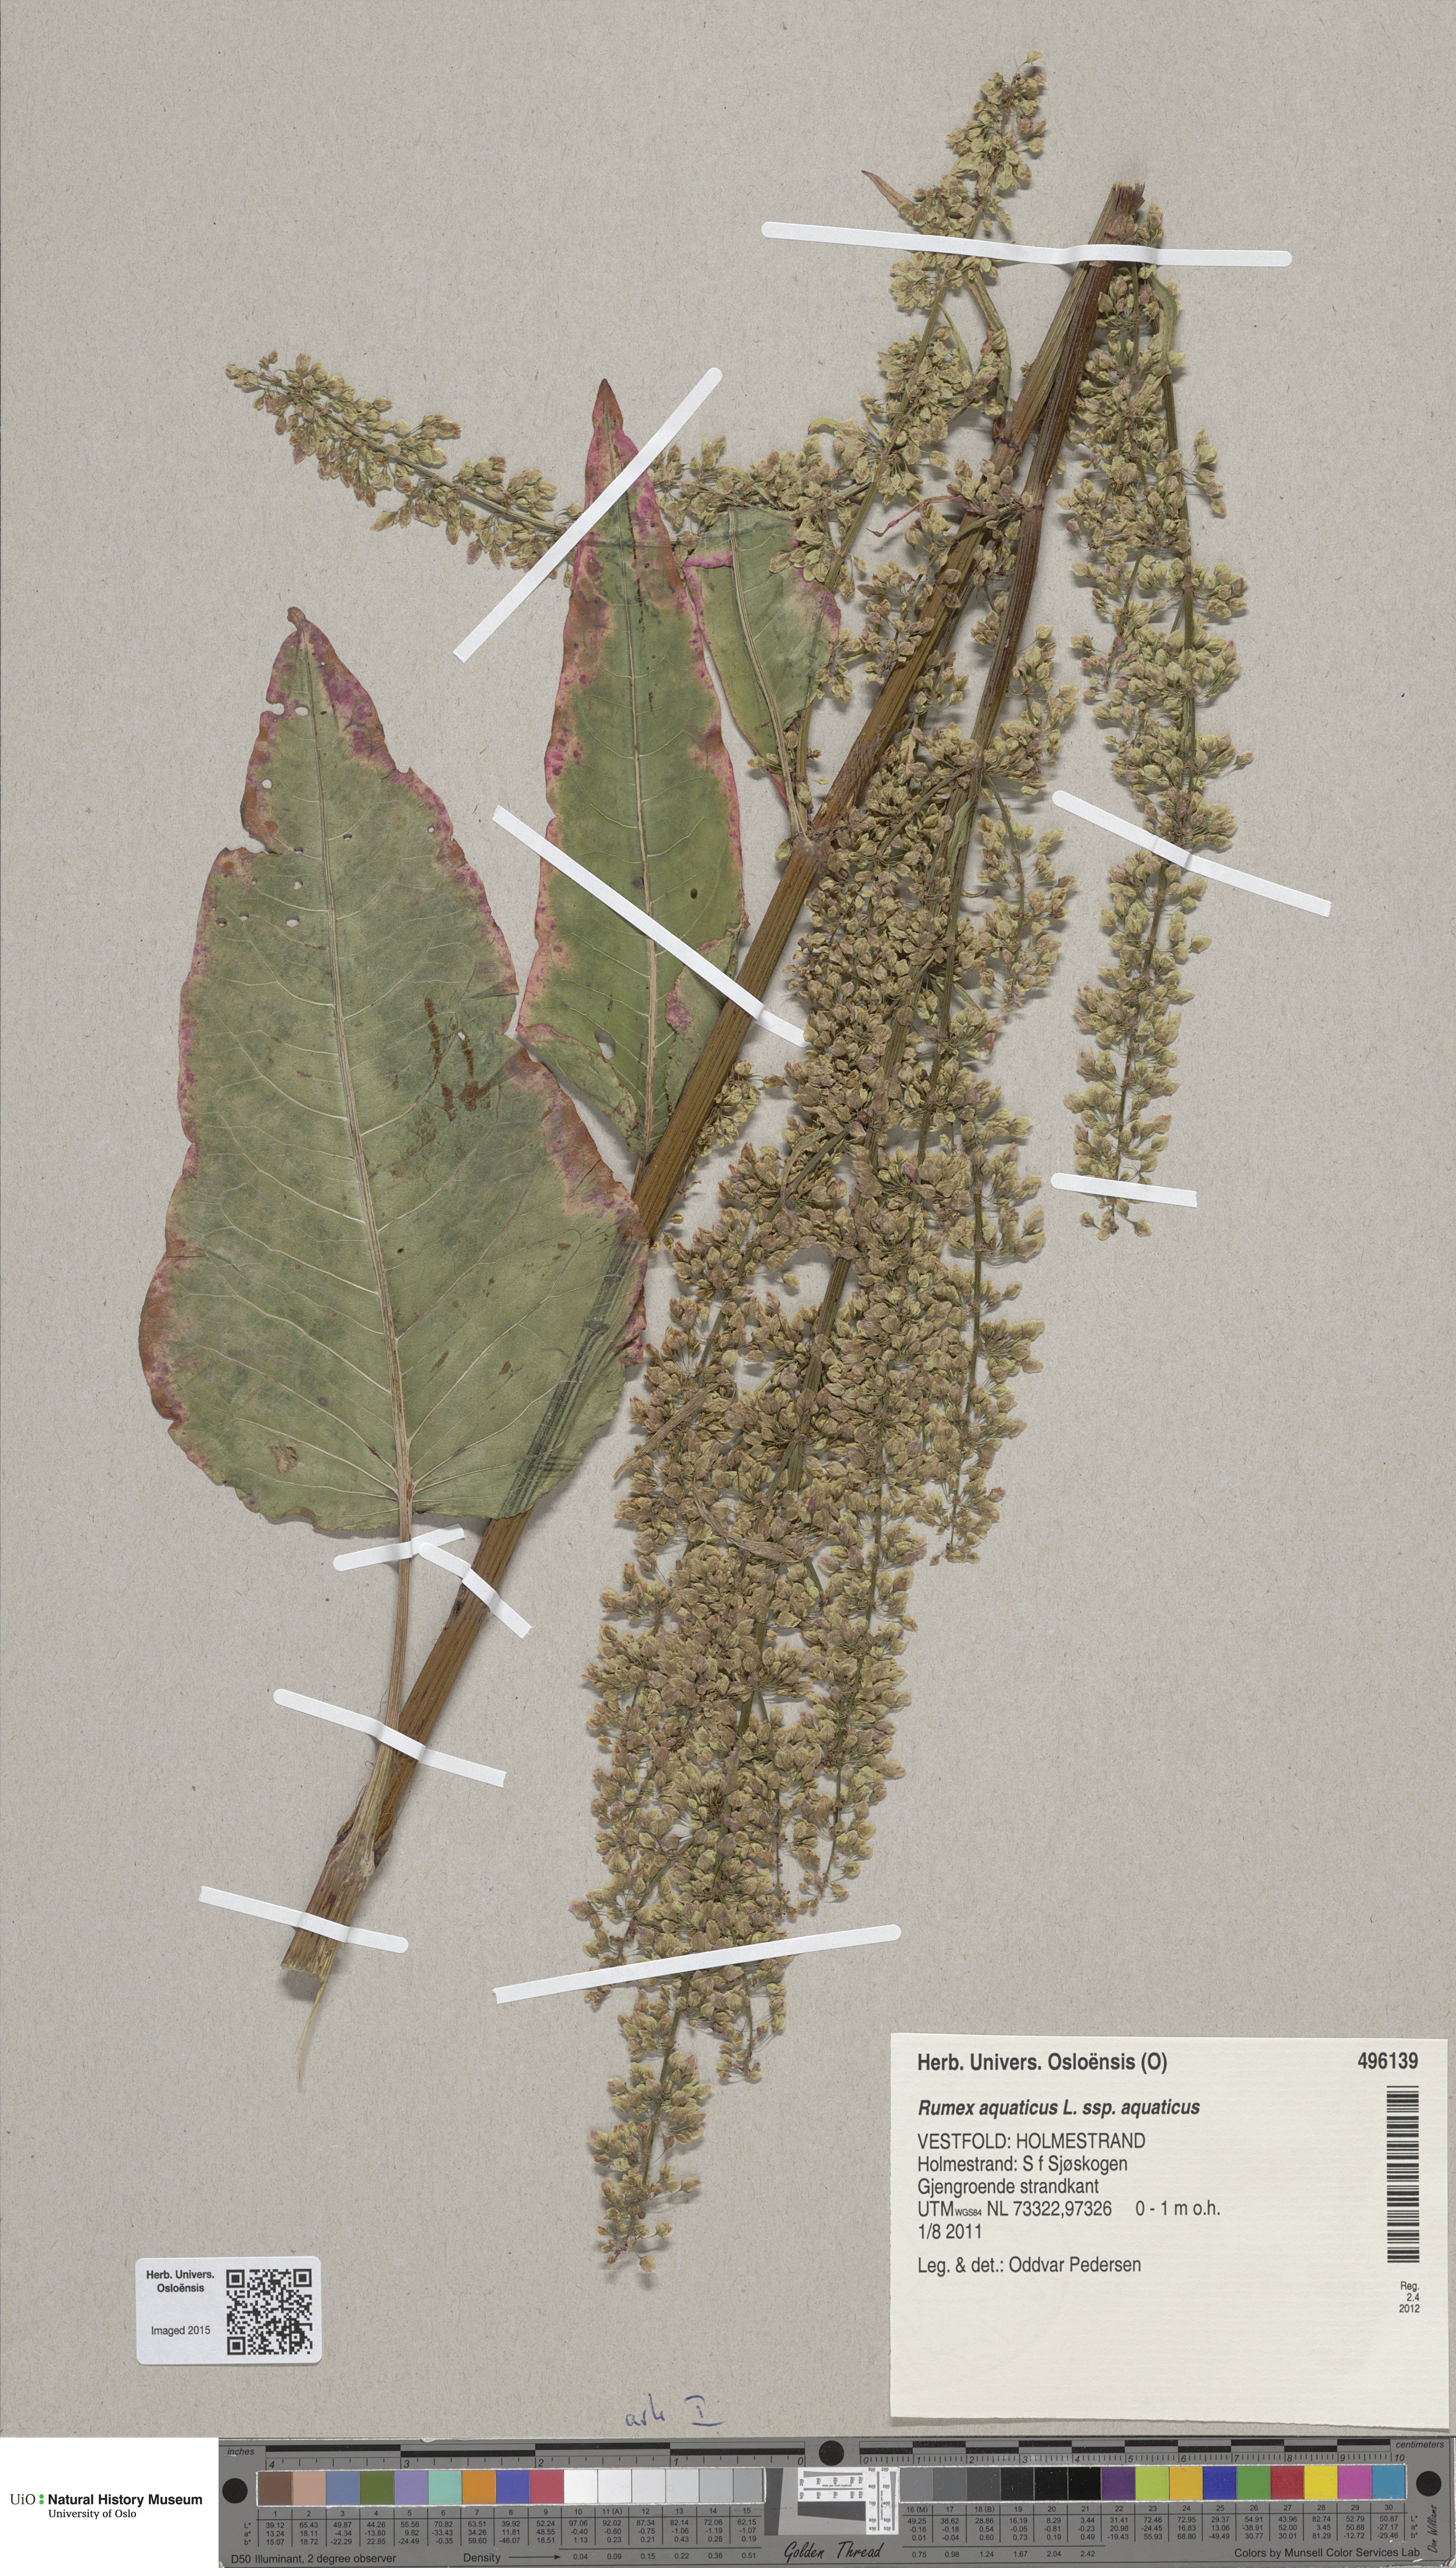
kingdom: Plantae
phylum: Tracheophyta
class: Magnoliopsida
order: Caryophyllales
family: Polygonaceae
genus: Rumex
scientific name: Rumex aquaticus
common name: Scottish dock
